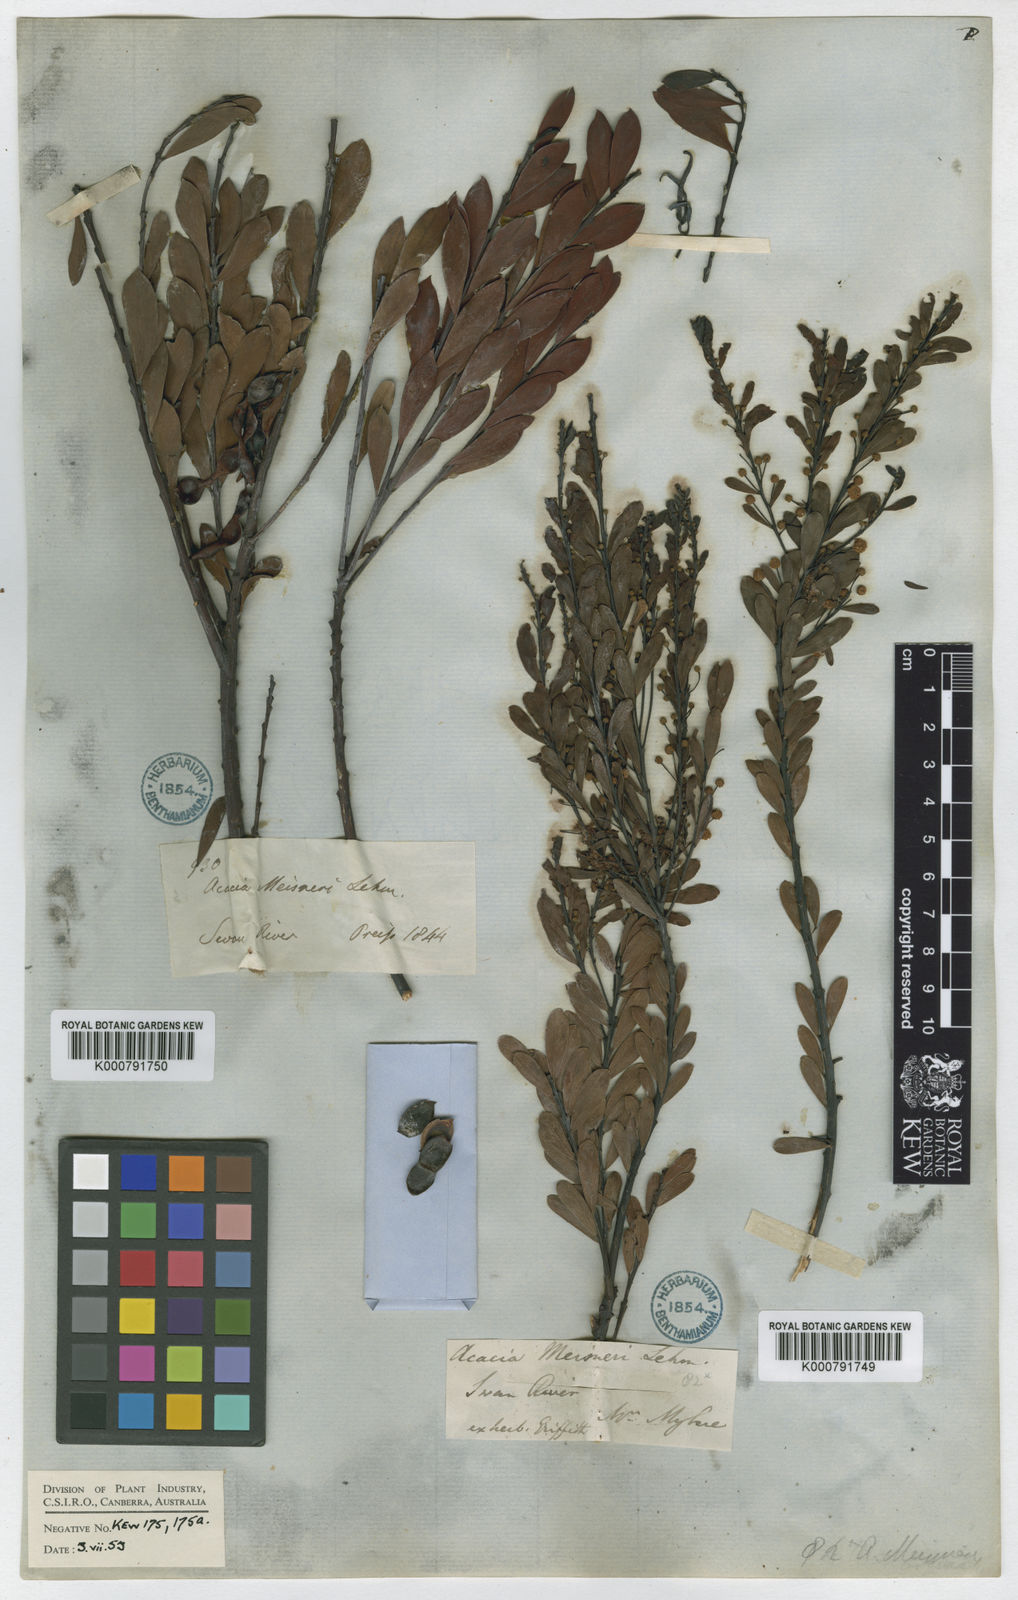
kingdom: Plantae
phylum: Tracheophyta
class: Magnoliopsida
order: Fabales
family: Fabaceae
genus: Acacia
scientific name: Acacia meisneri
